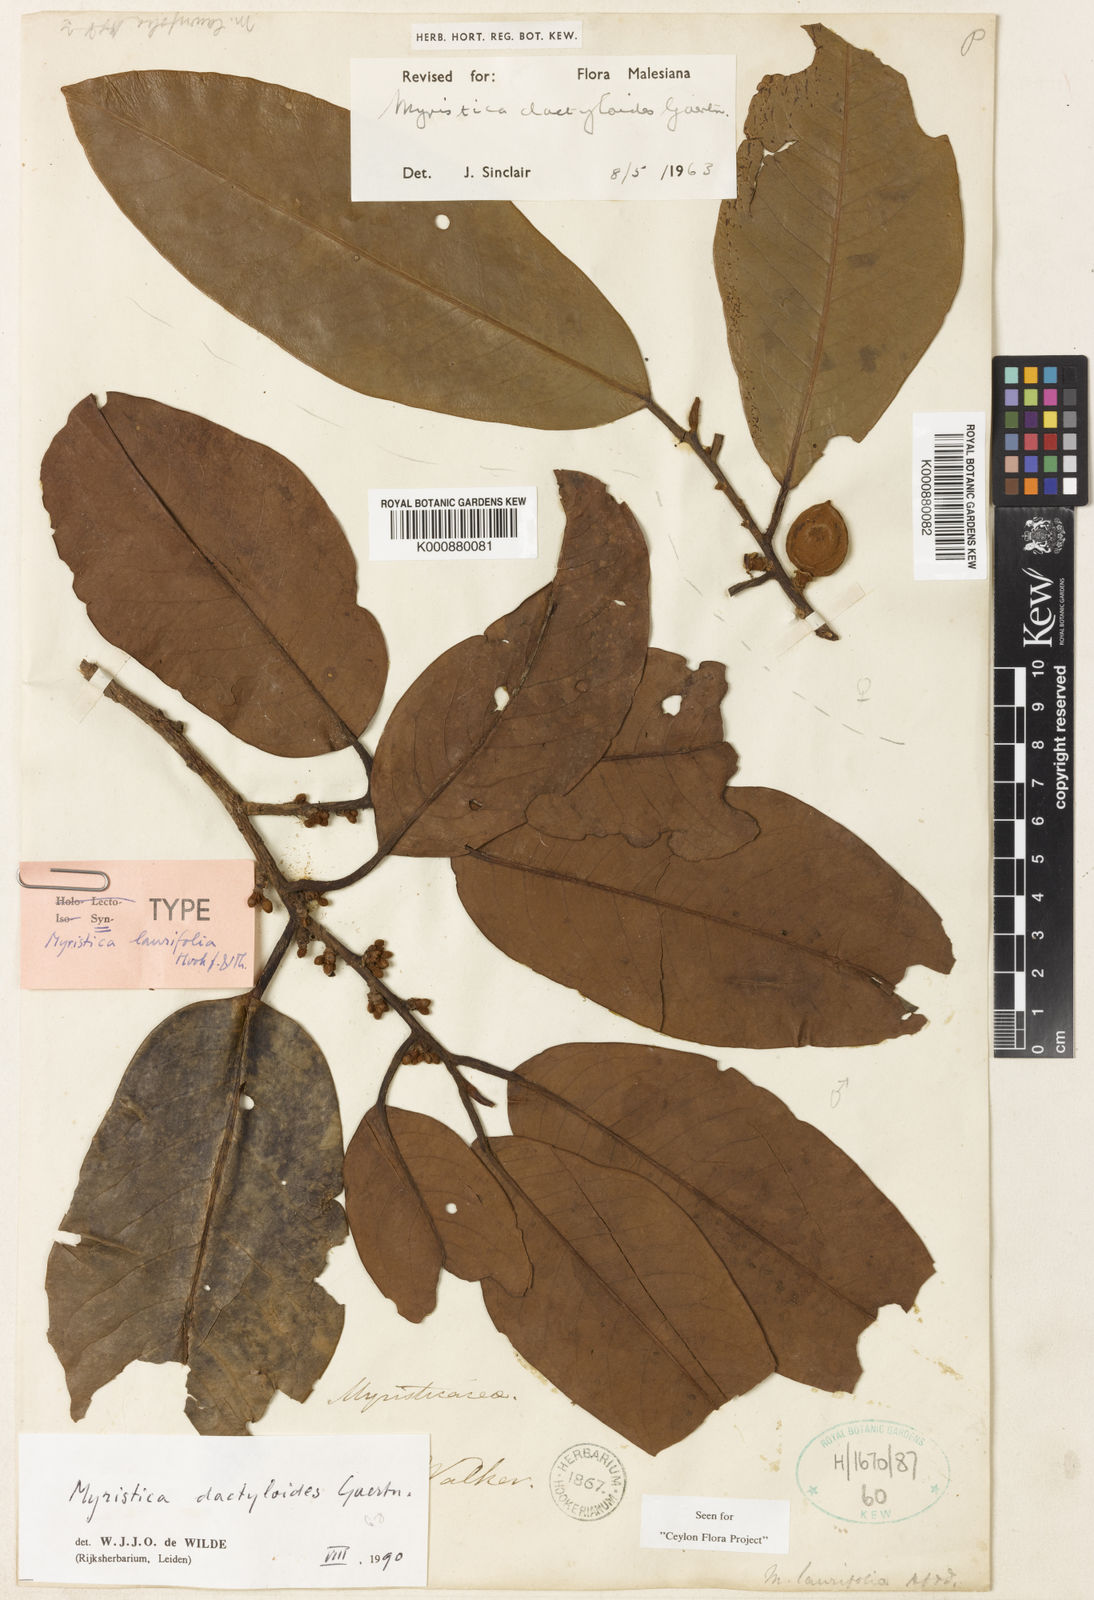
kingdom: Plantae
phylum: Tracheophyta
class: Magnoliopsida
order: Magnoliales
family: Myristicaceae
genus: Myristica
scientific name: Myristica magnifica
